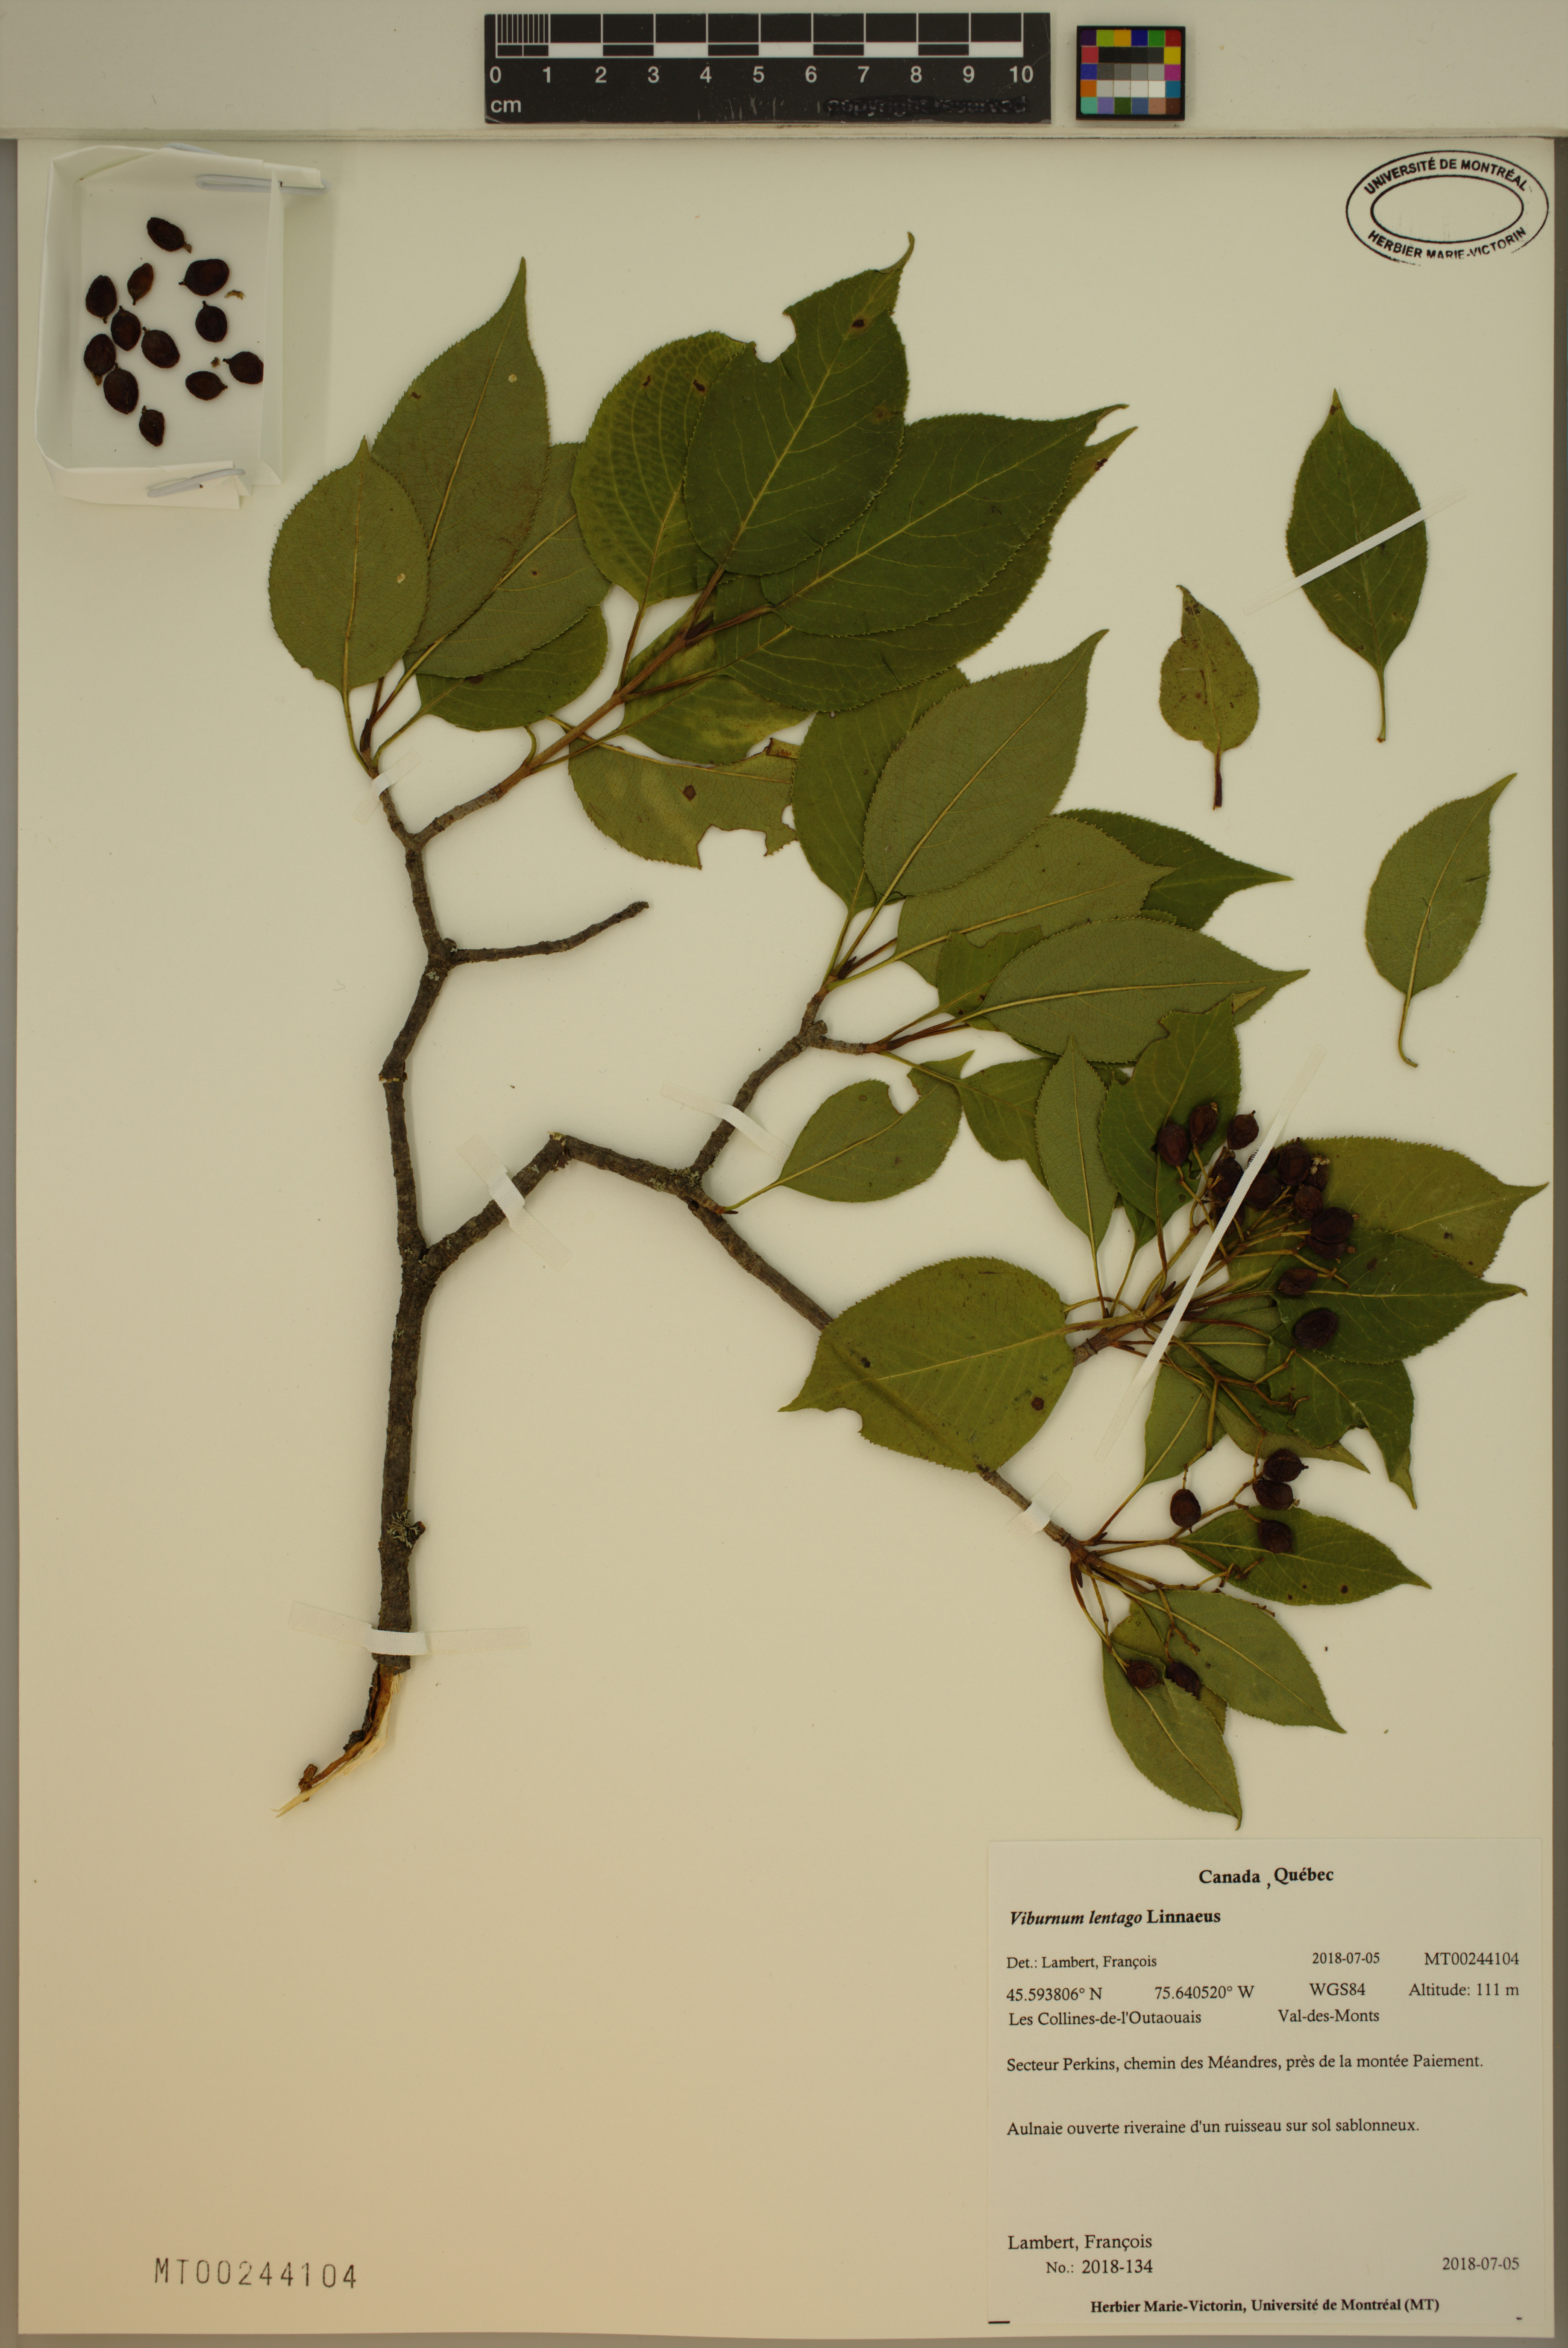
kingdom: Plantae
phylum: Tracheophyta
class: Magnoliopsida
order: Dipsacales
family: Viburnaceae
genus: Viburnum
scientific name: Viburnum lentago
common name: Black haw
